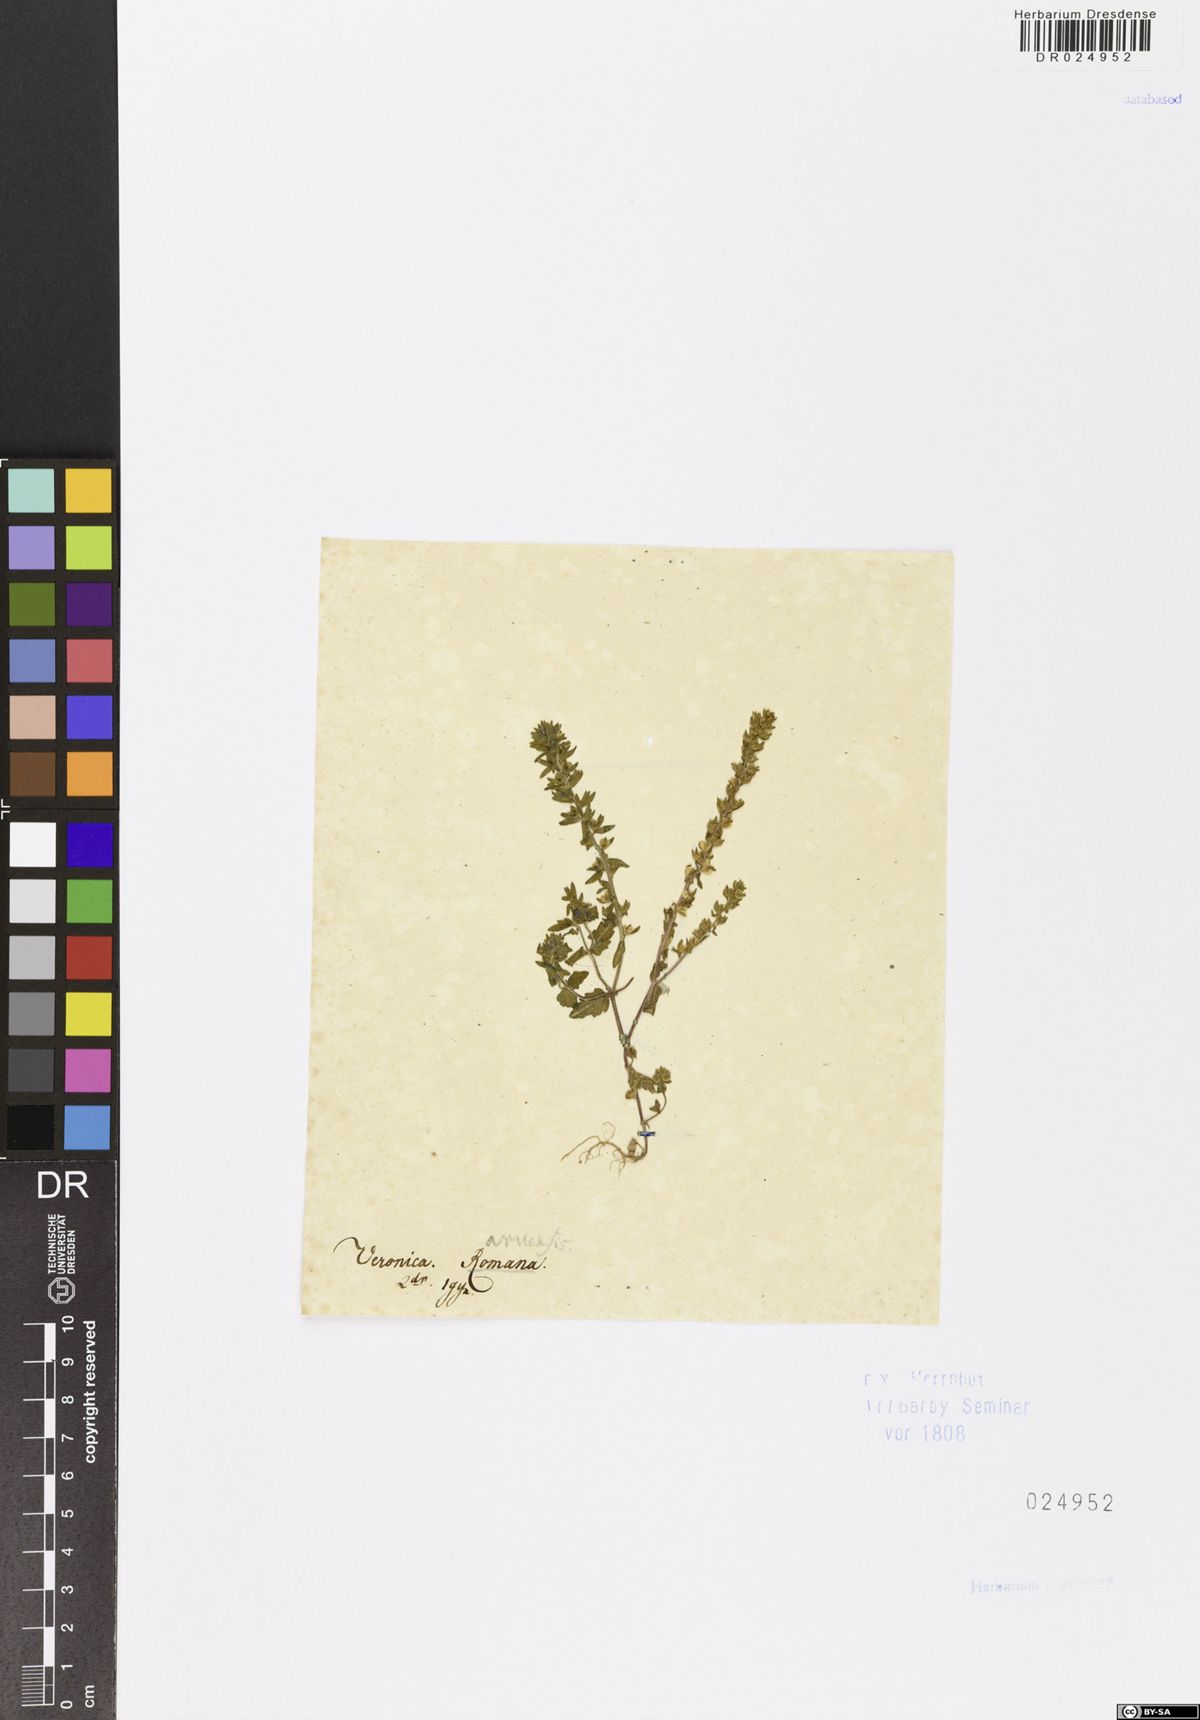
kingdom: Plantae
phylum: Tracheophyta
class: Magnoliopsida
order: Lamiales
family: Plantaginaceae
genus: Veronica
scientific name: Veronica arvensis
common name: Corn speedwell
